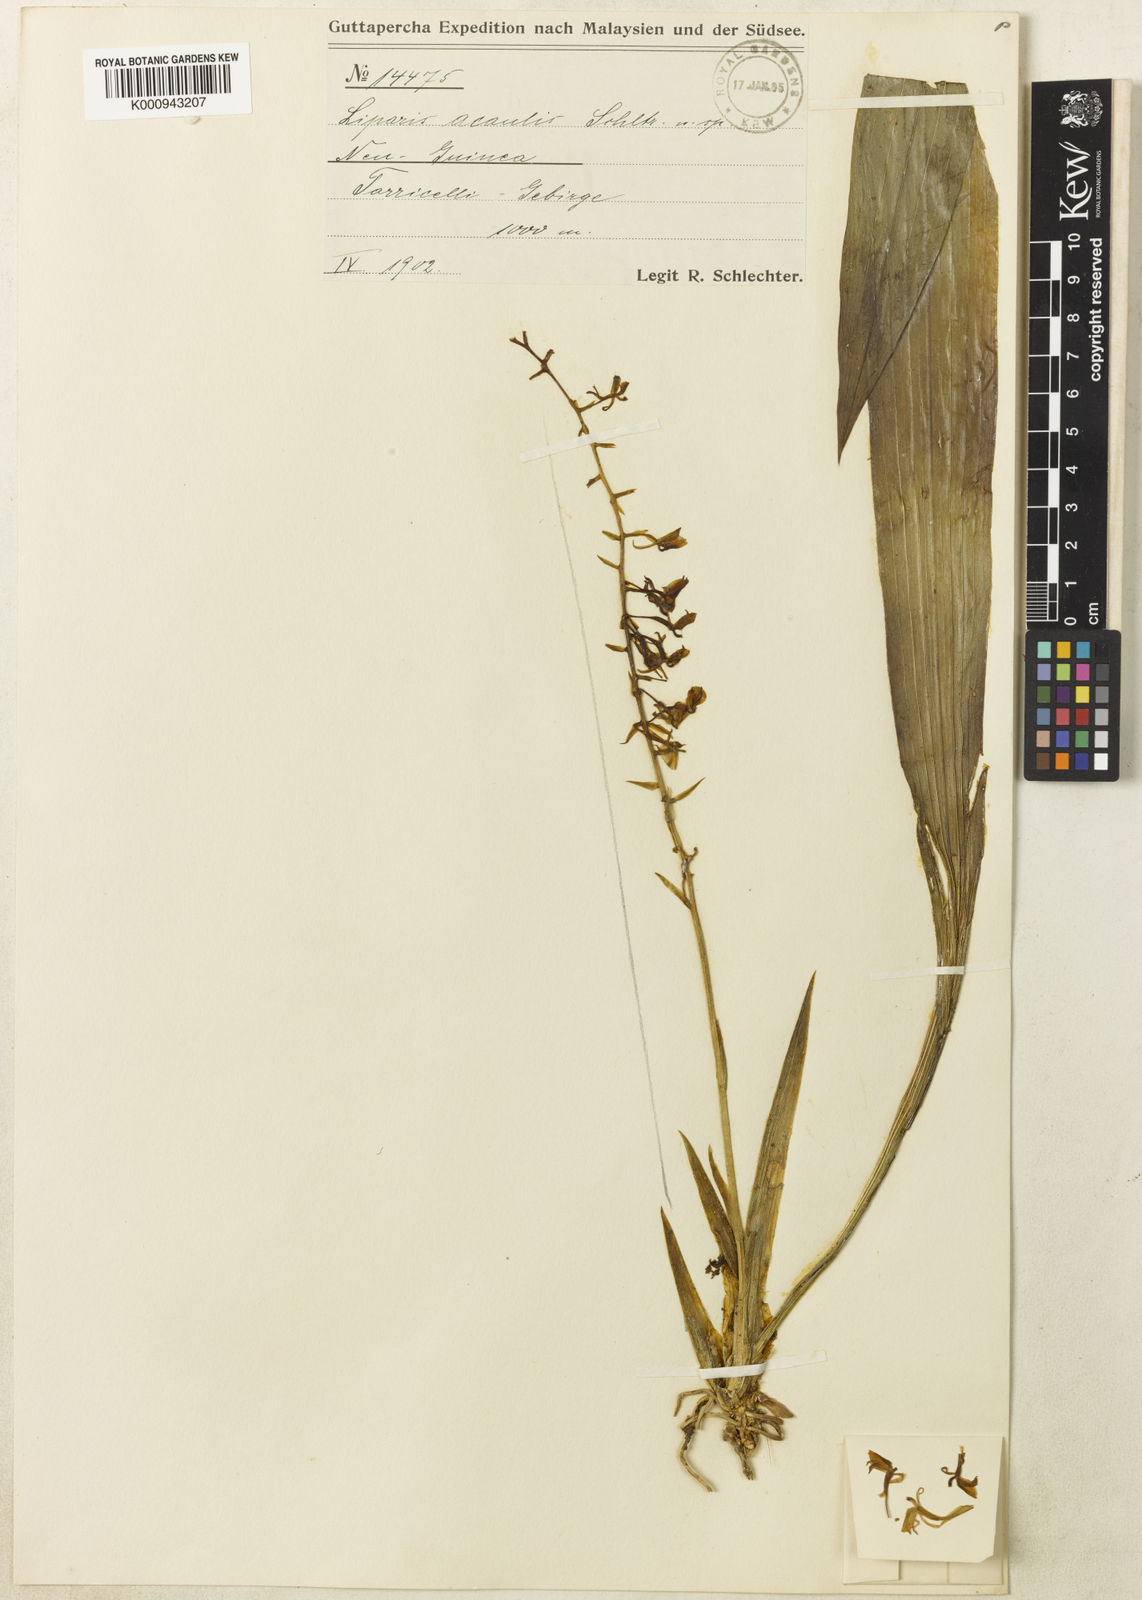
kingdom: Plantae
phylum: Tracheophyta
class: Liliopsida
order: Asparagales
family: Orchidaceae
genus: Liparis
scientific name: Liparis acaulis
